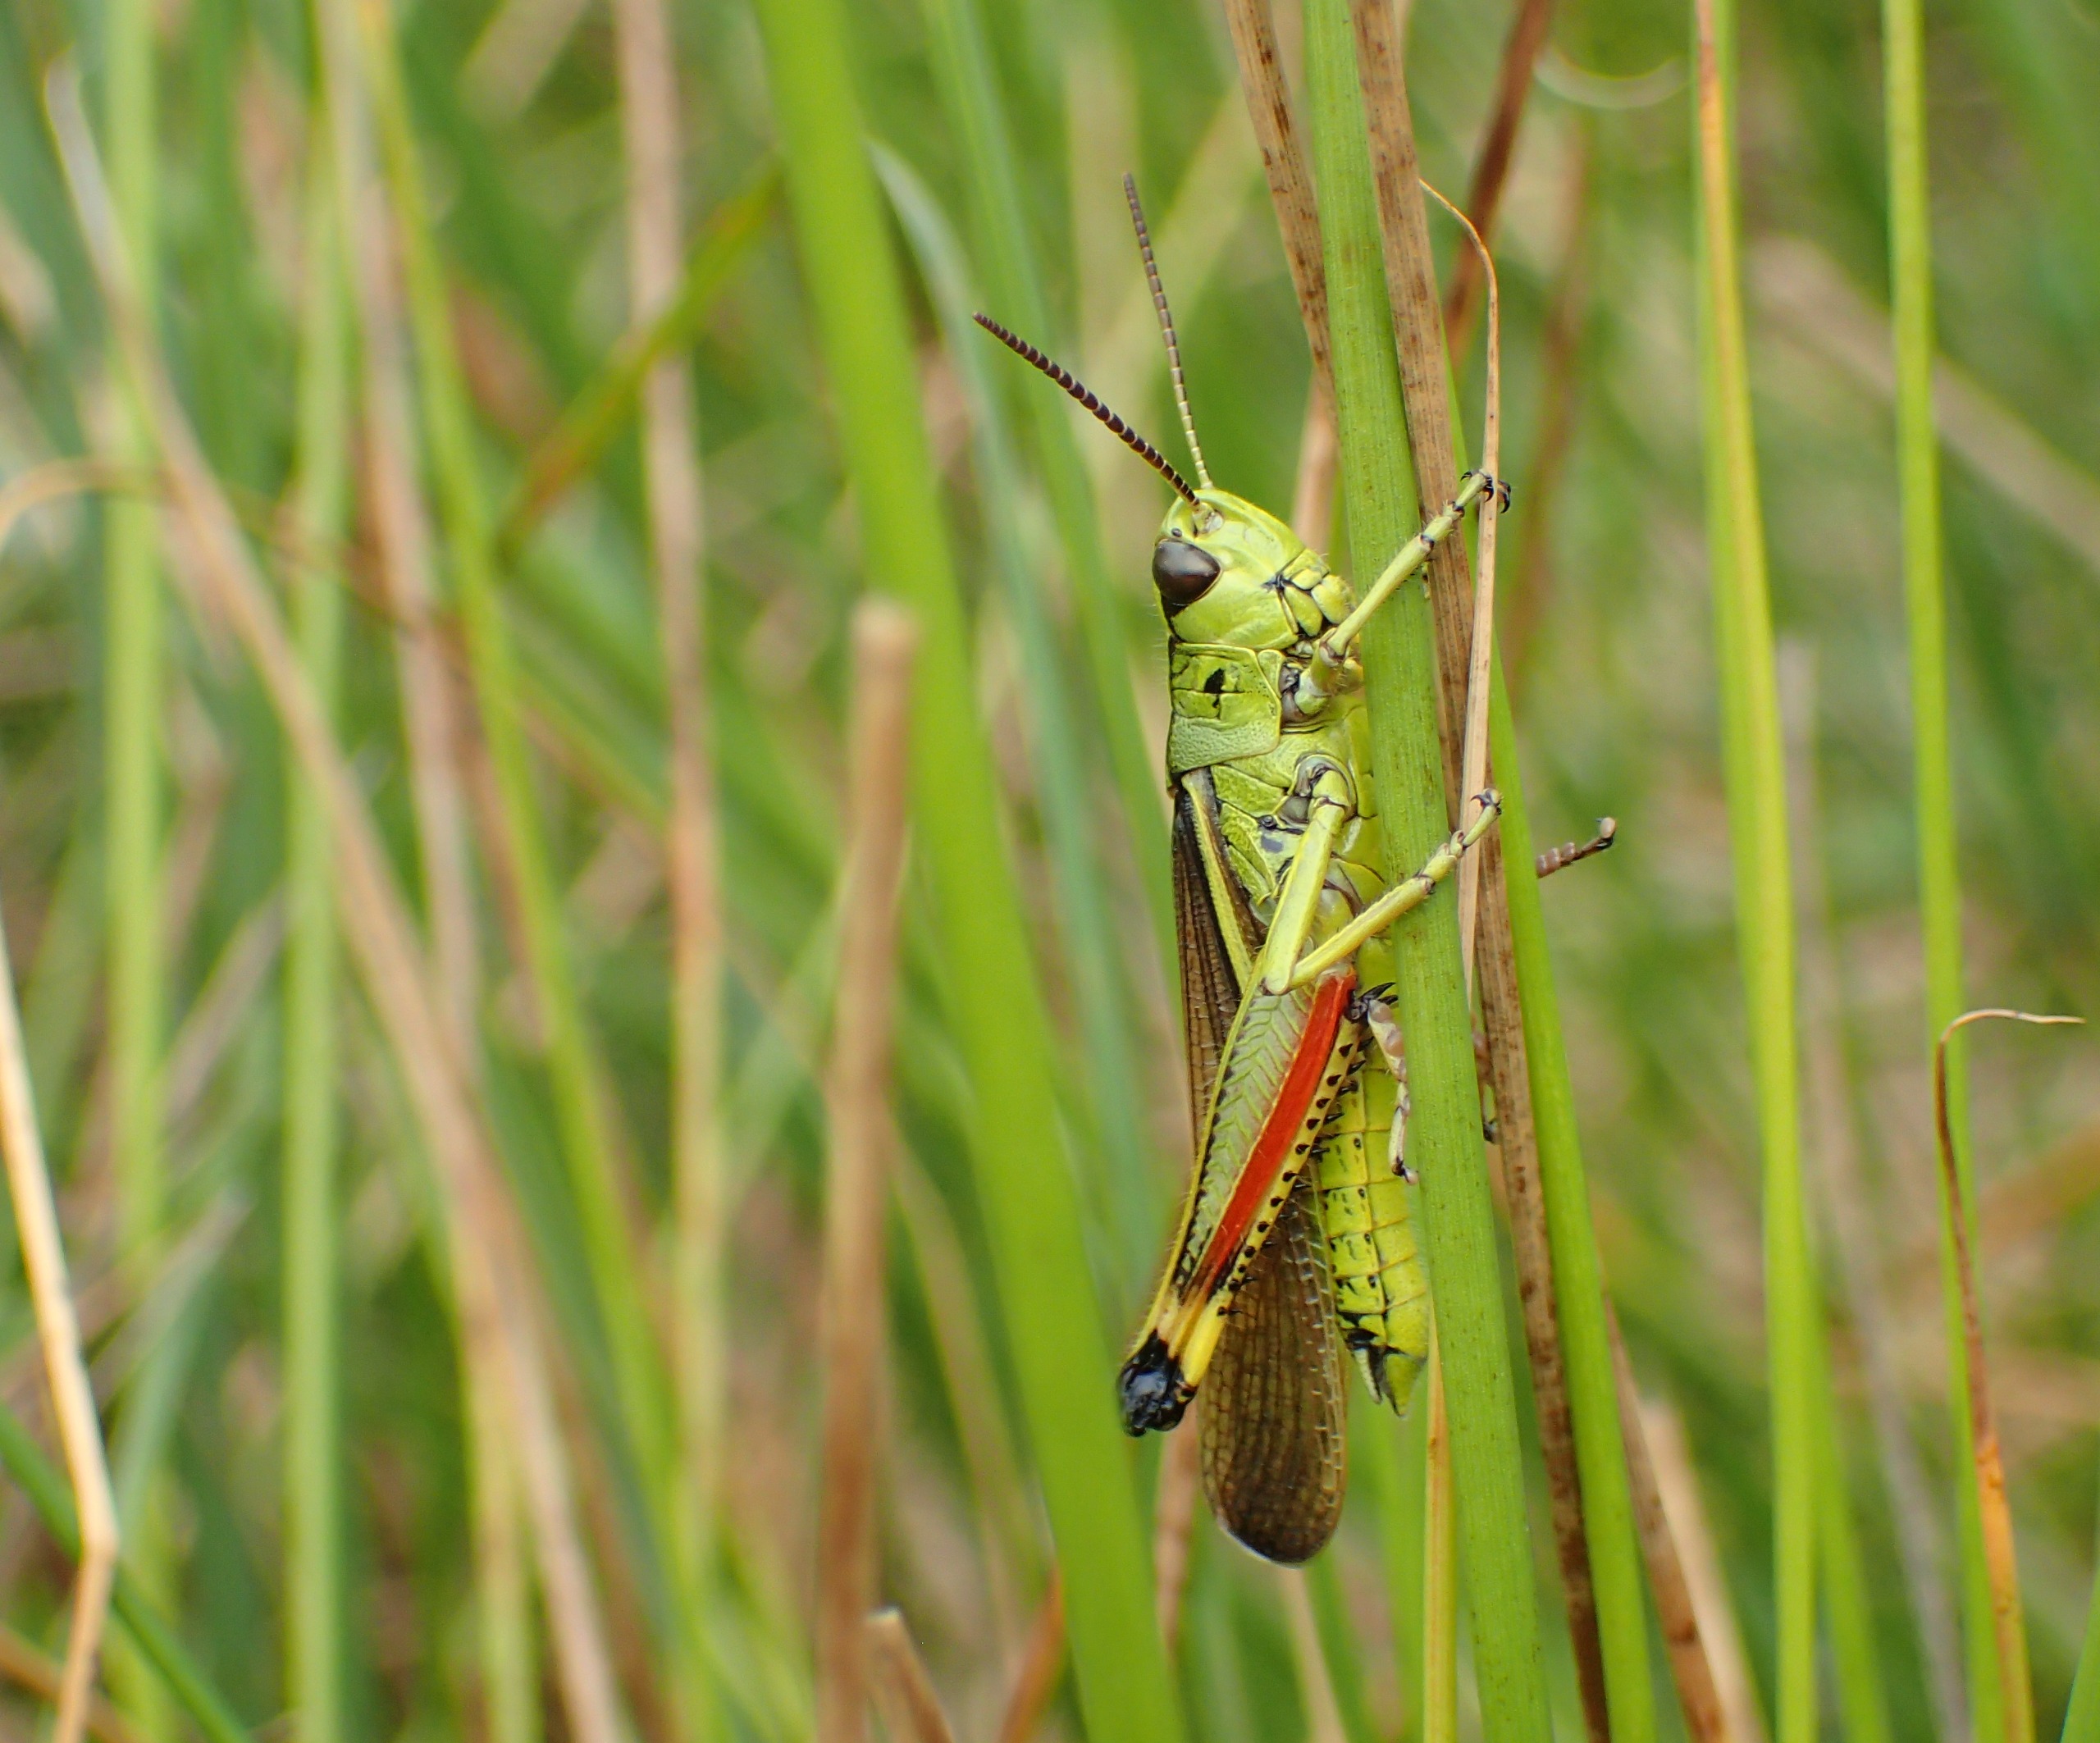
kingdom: Animalia
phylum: Arthropoda
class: Insecta
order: Orthoptera
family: Acrididae
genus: Stethophyma
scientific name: Stethophyma grossum
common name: Sumpgræshoppe
